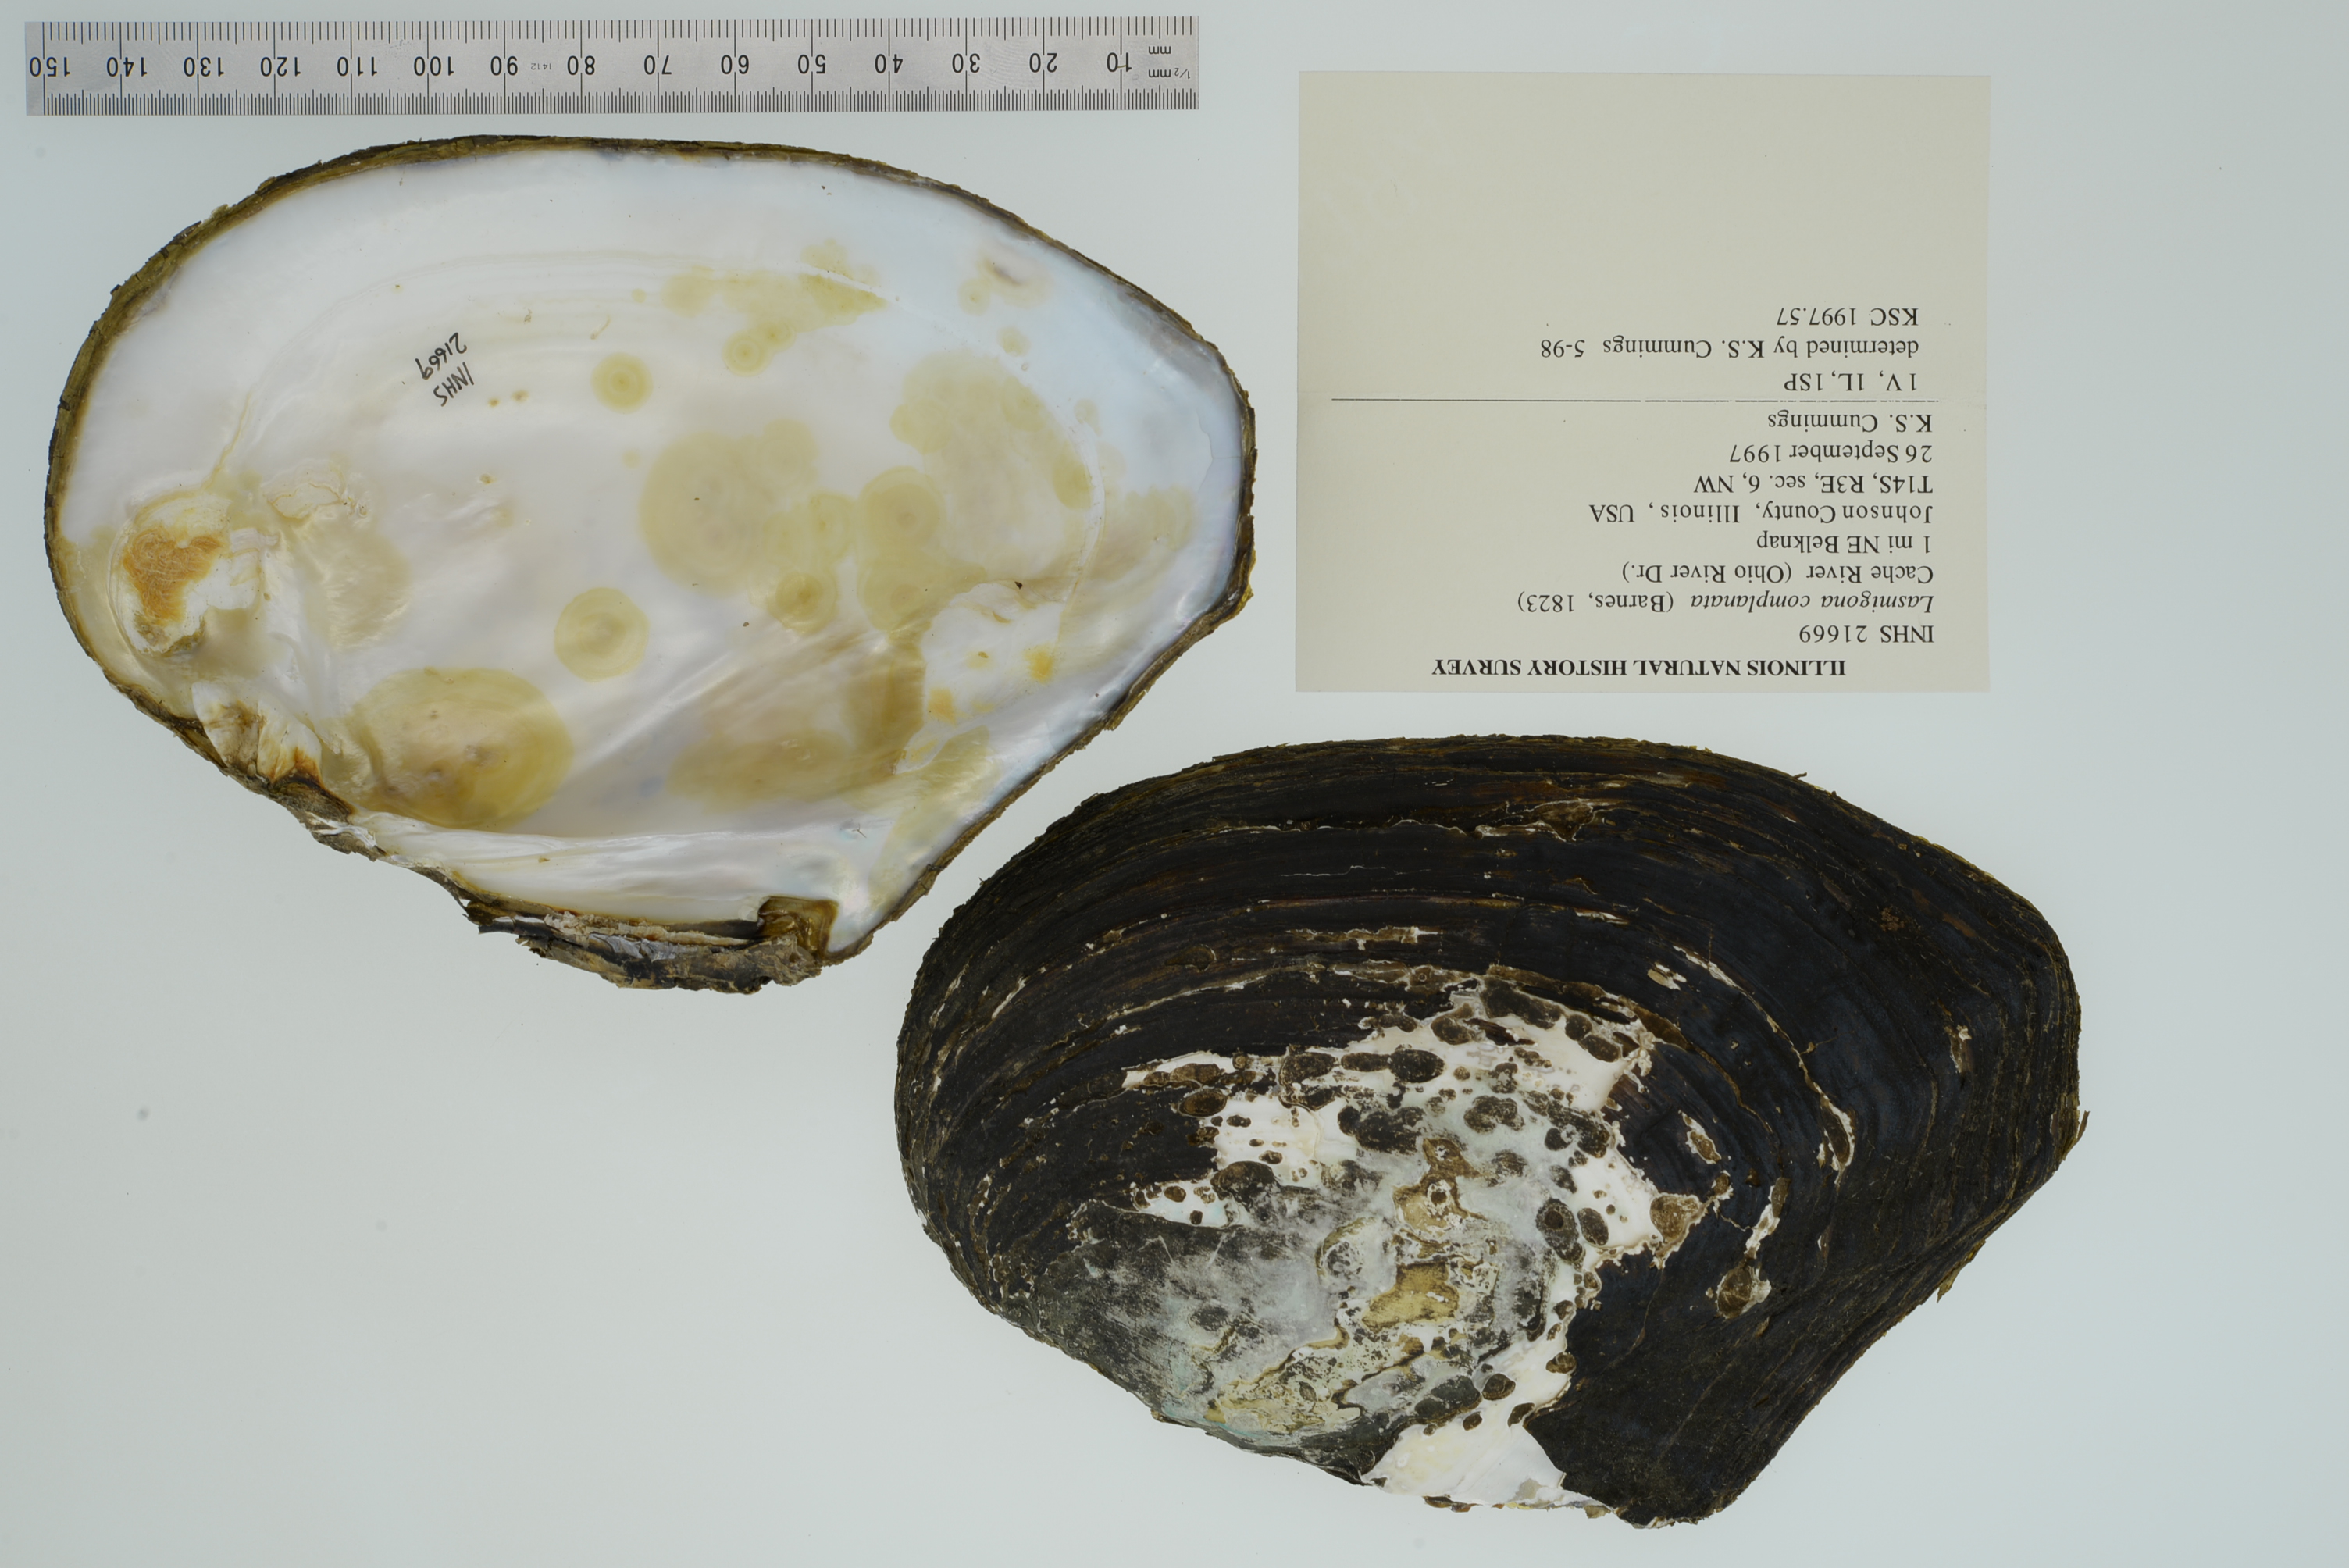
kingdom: Animalia
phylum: Mollusca
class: Bivalvia
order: Unionida
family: Unionidae
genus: Lasmigona
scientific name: Lasmigona complanata
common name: White heelsplitter
